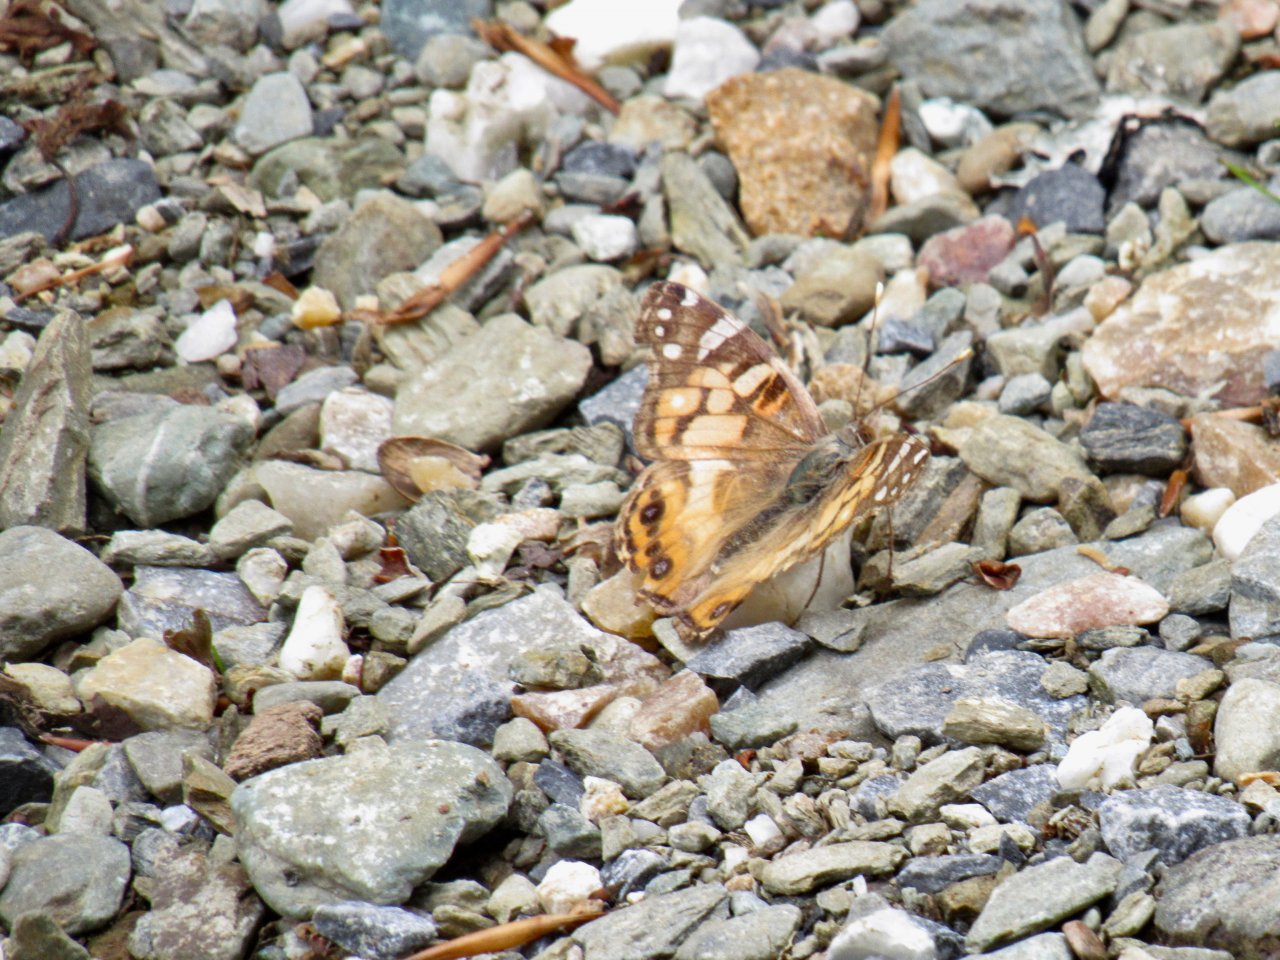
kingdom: Animalia
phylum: Arthropoda
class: Insecta
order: Lepidoptera
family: Nymphalidae
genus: Vanessa
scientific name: Vanessa virginiensis
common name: American Lady
